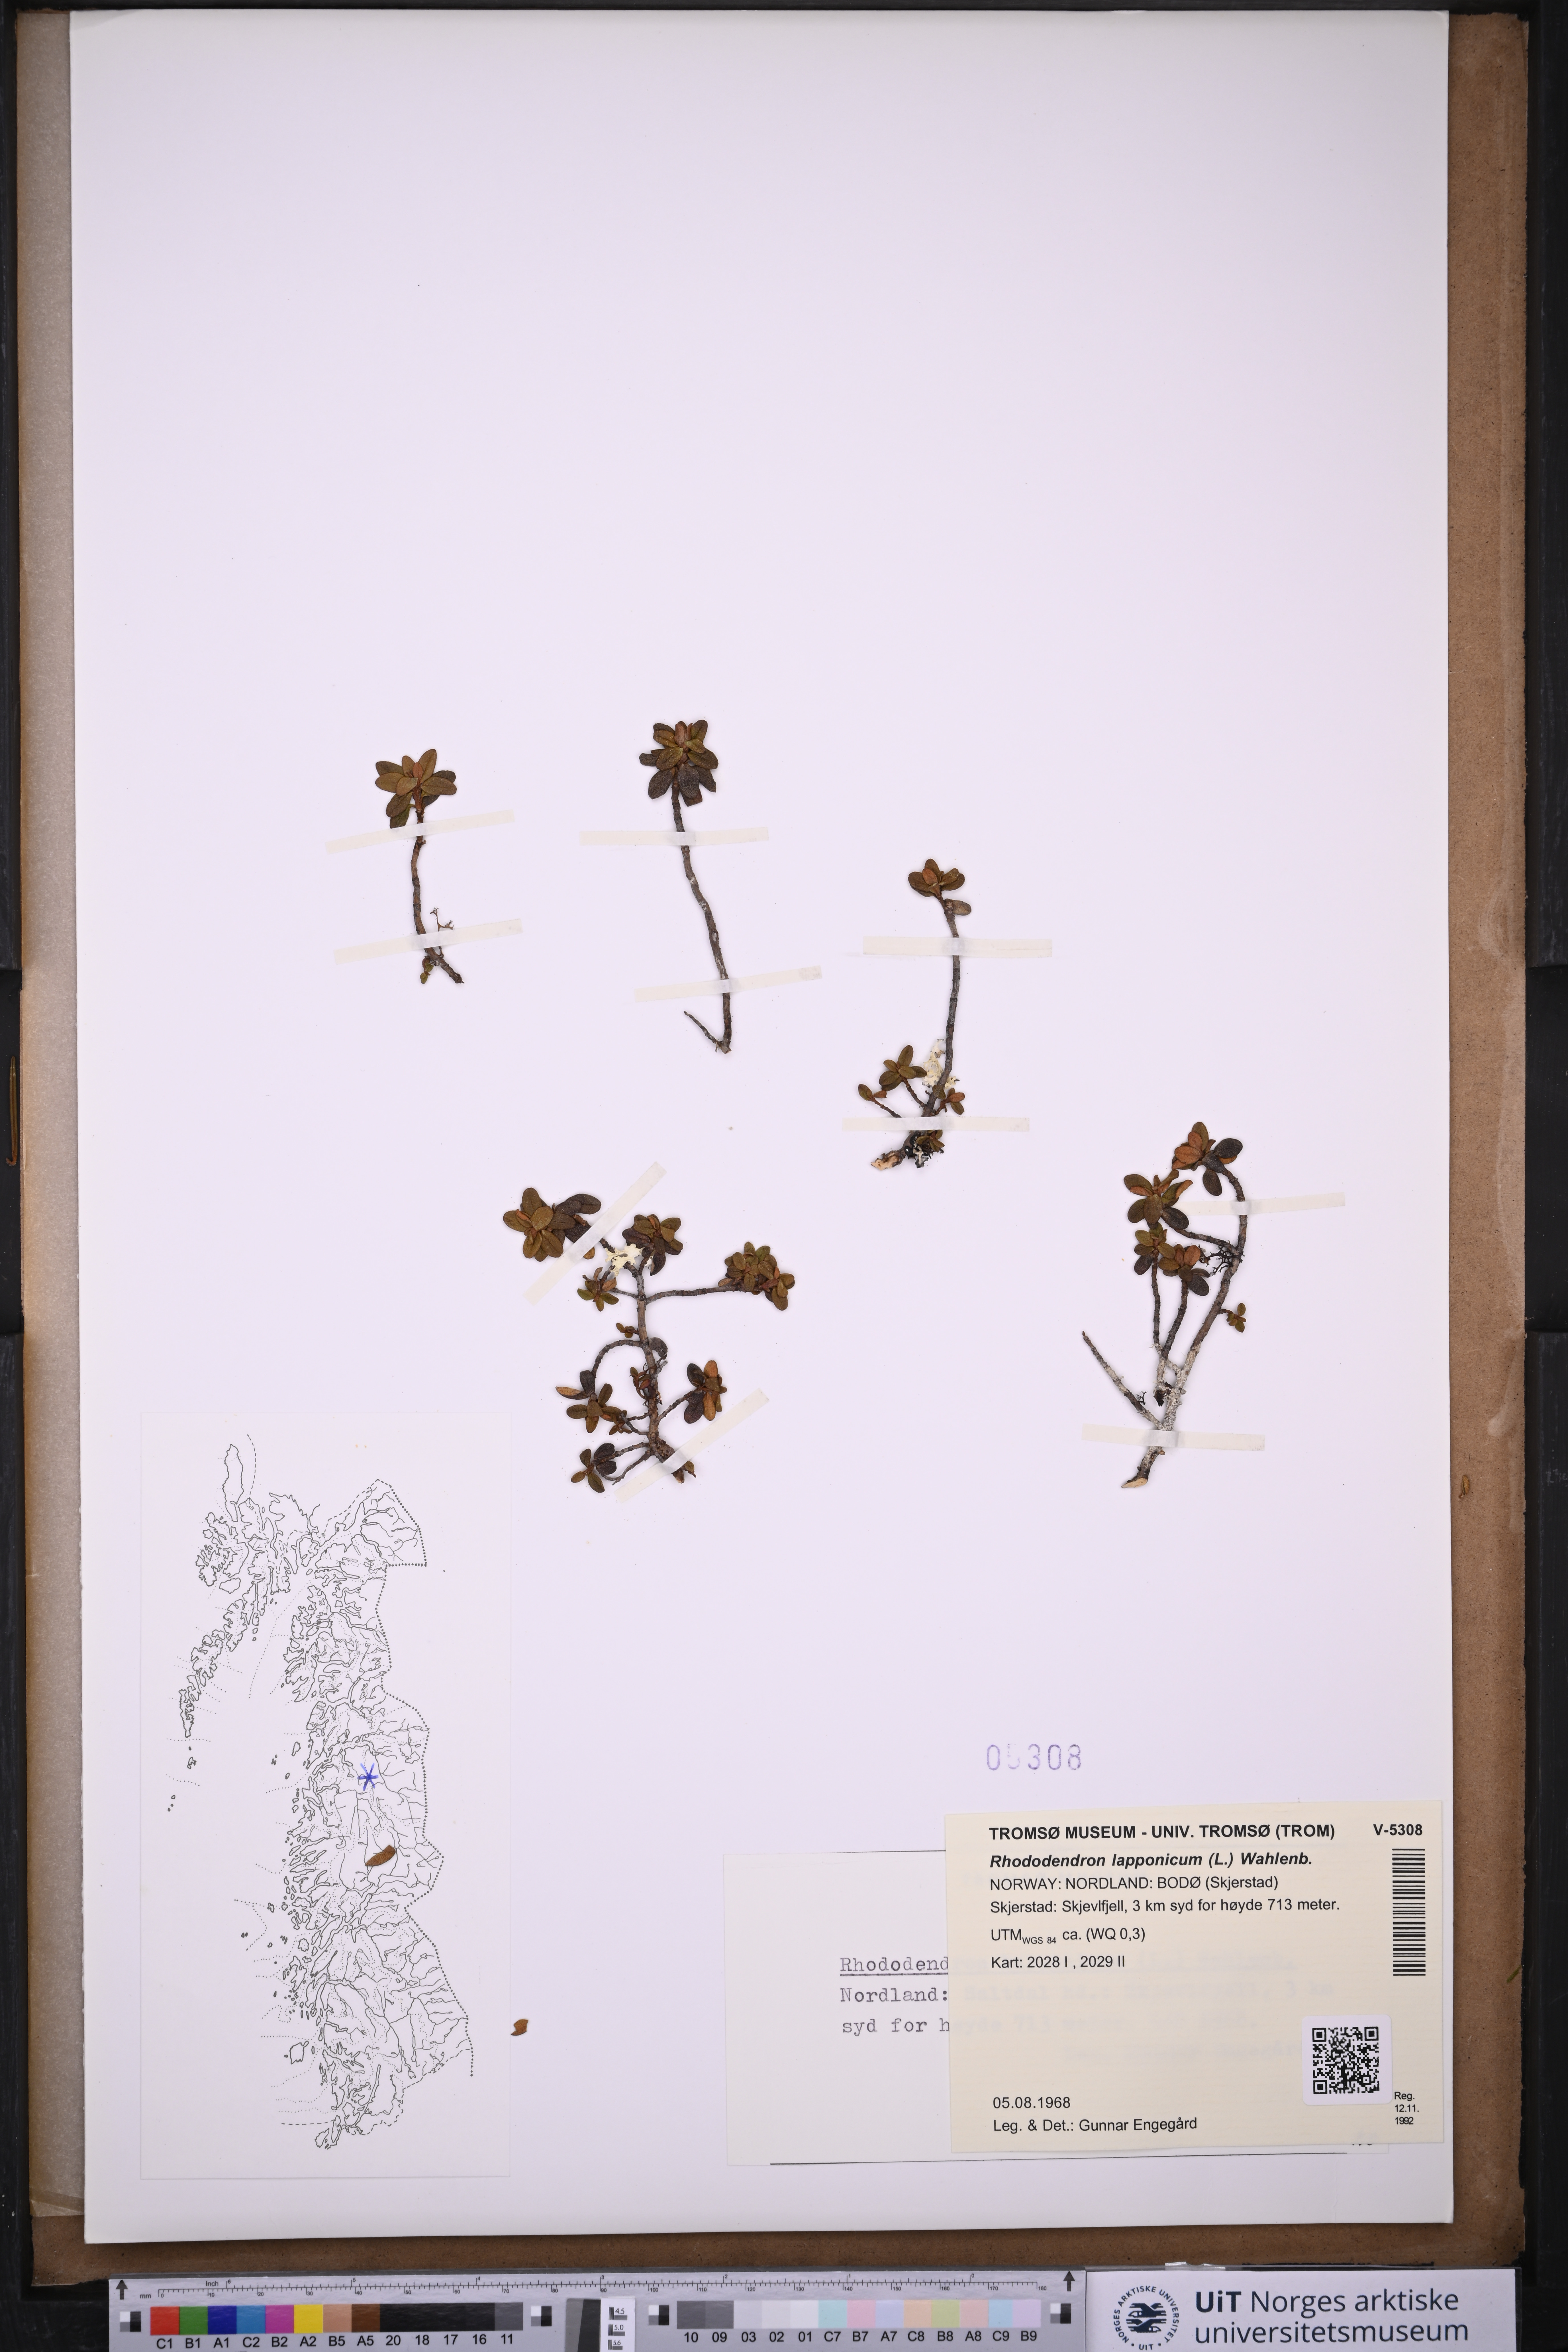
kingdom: Plantae
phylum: Tracheophyta
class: Magnoliopsida
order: Ericales
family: Ericaceae
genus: Rhododendron
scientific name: Rhododendron lapponicum
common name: Lapland rhododendron
